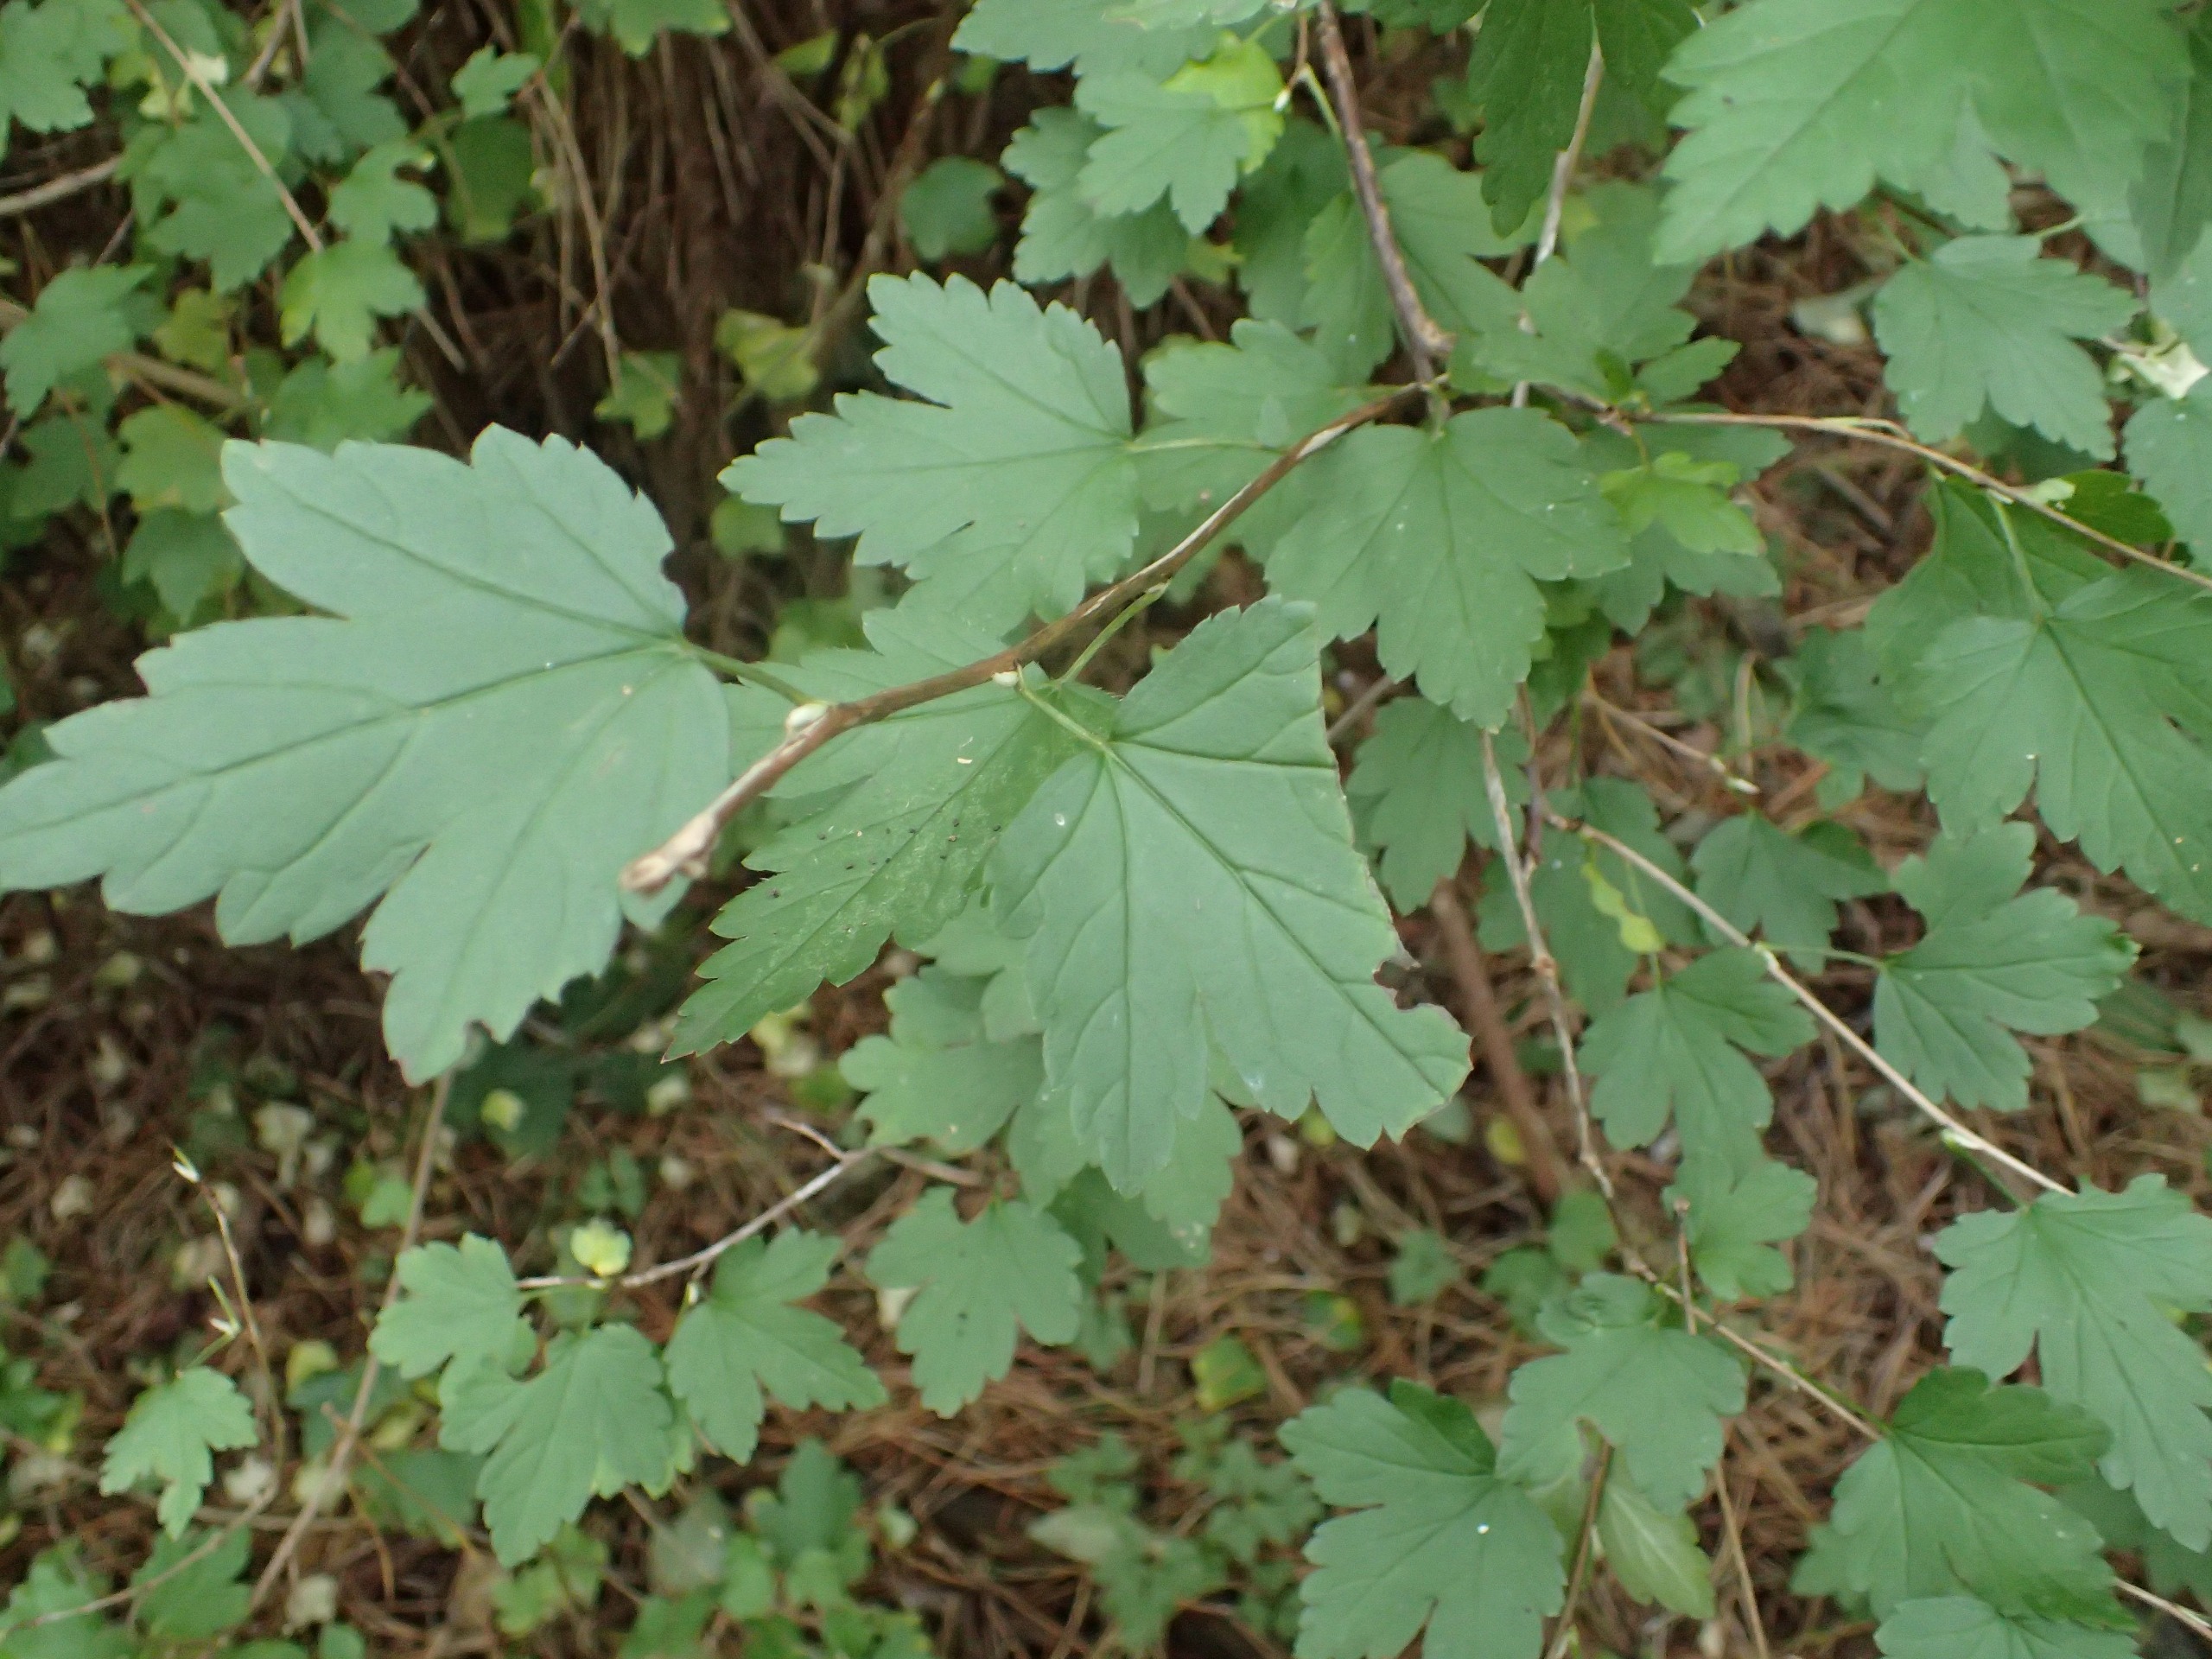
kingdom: Plantae
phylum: Tracheophyta
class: Magnoliopsida
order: Saxifragales
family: Grossulariaceae
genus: Ribes
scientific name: Ribes alpinum
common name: Fjeld-ribs
